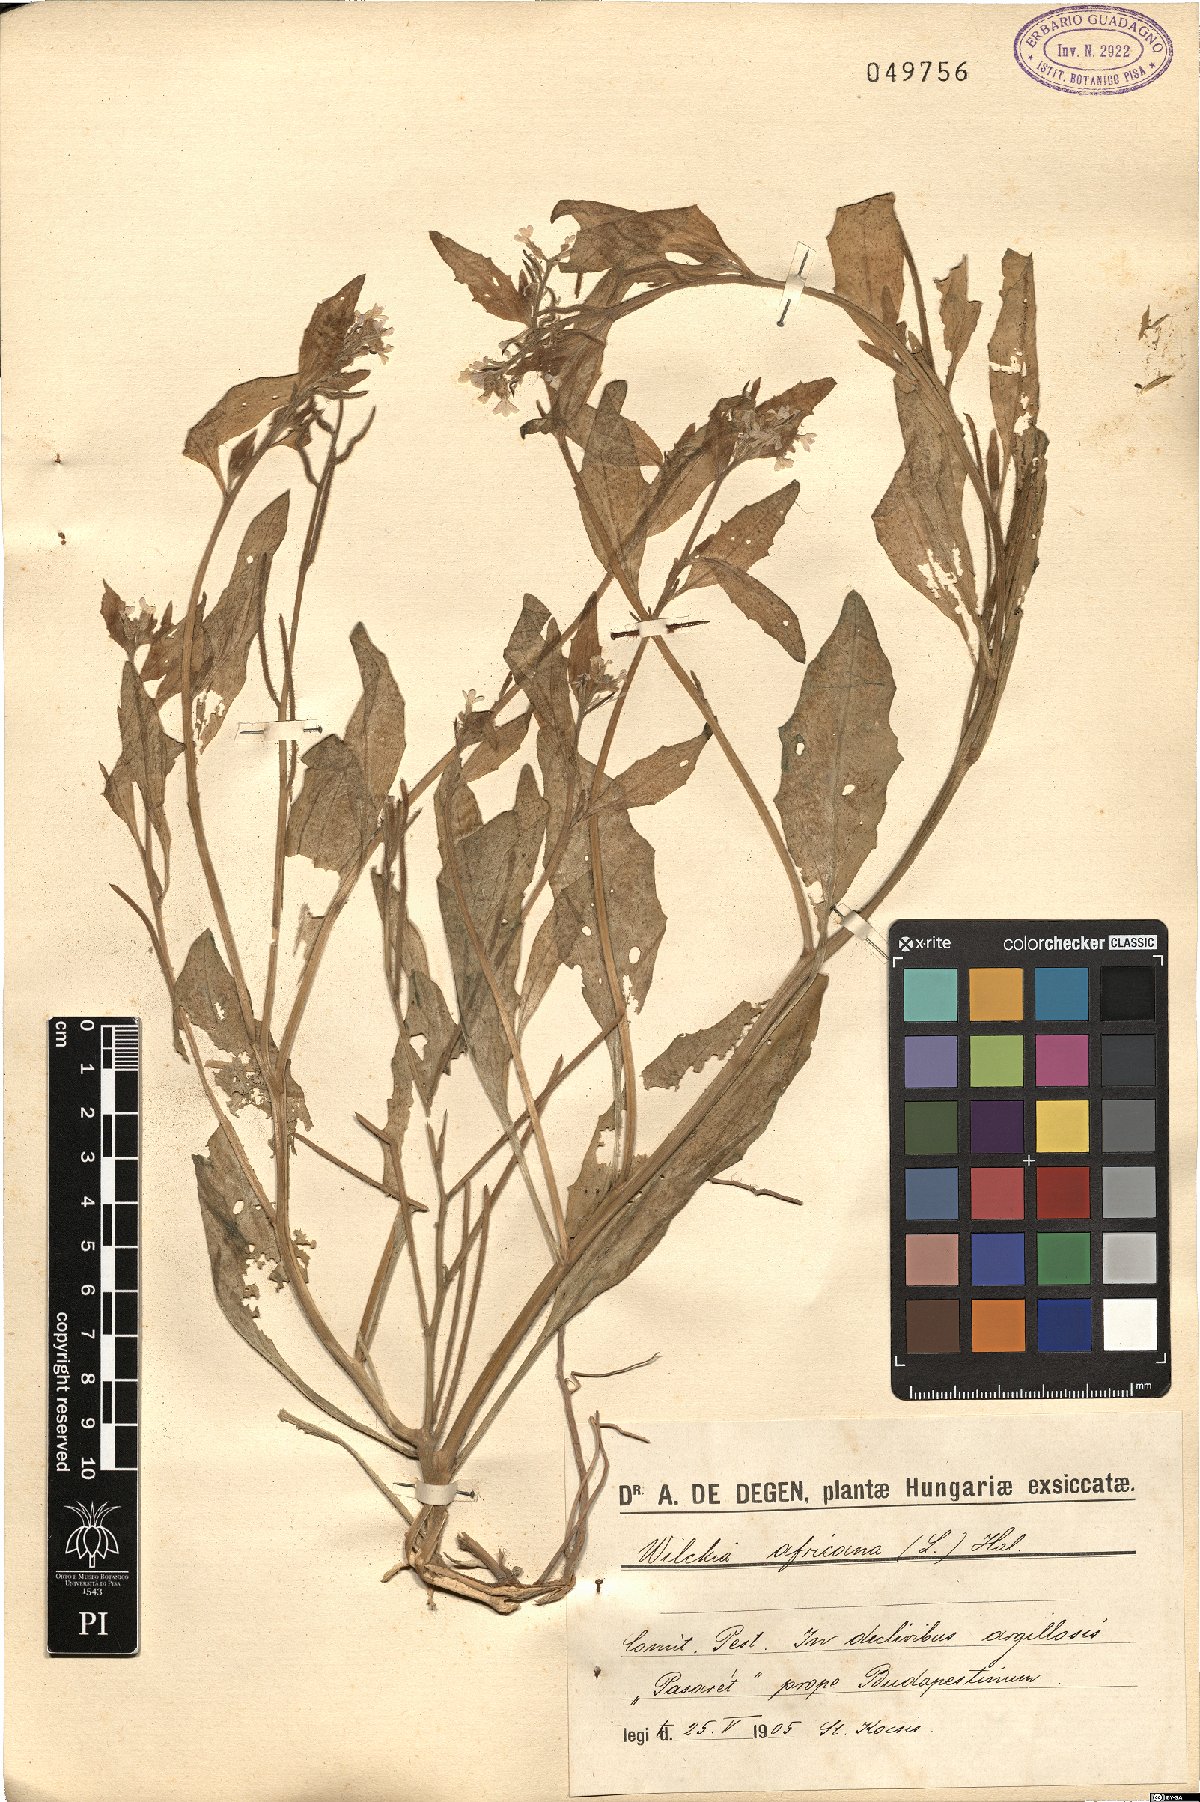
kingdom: Plantae
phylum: Tracheophyta
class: Magnoliopsida
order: Brassicales
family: Brassicaceae
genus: Strigosella
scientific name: Strigosella africana
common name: African mustard
